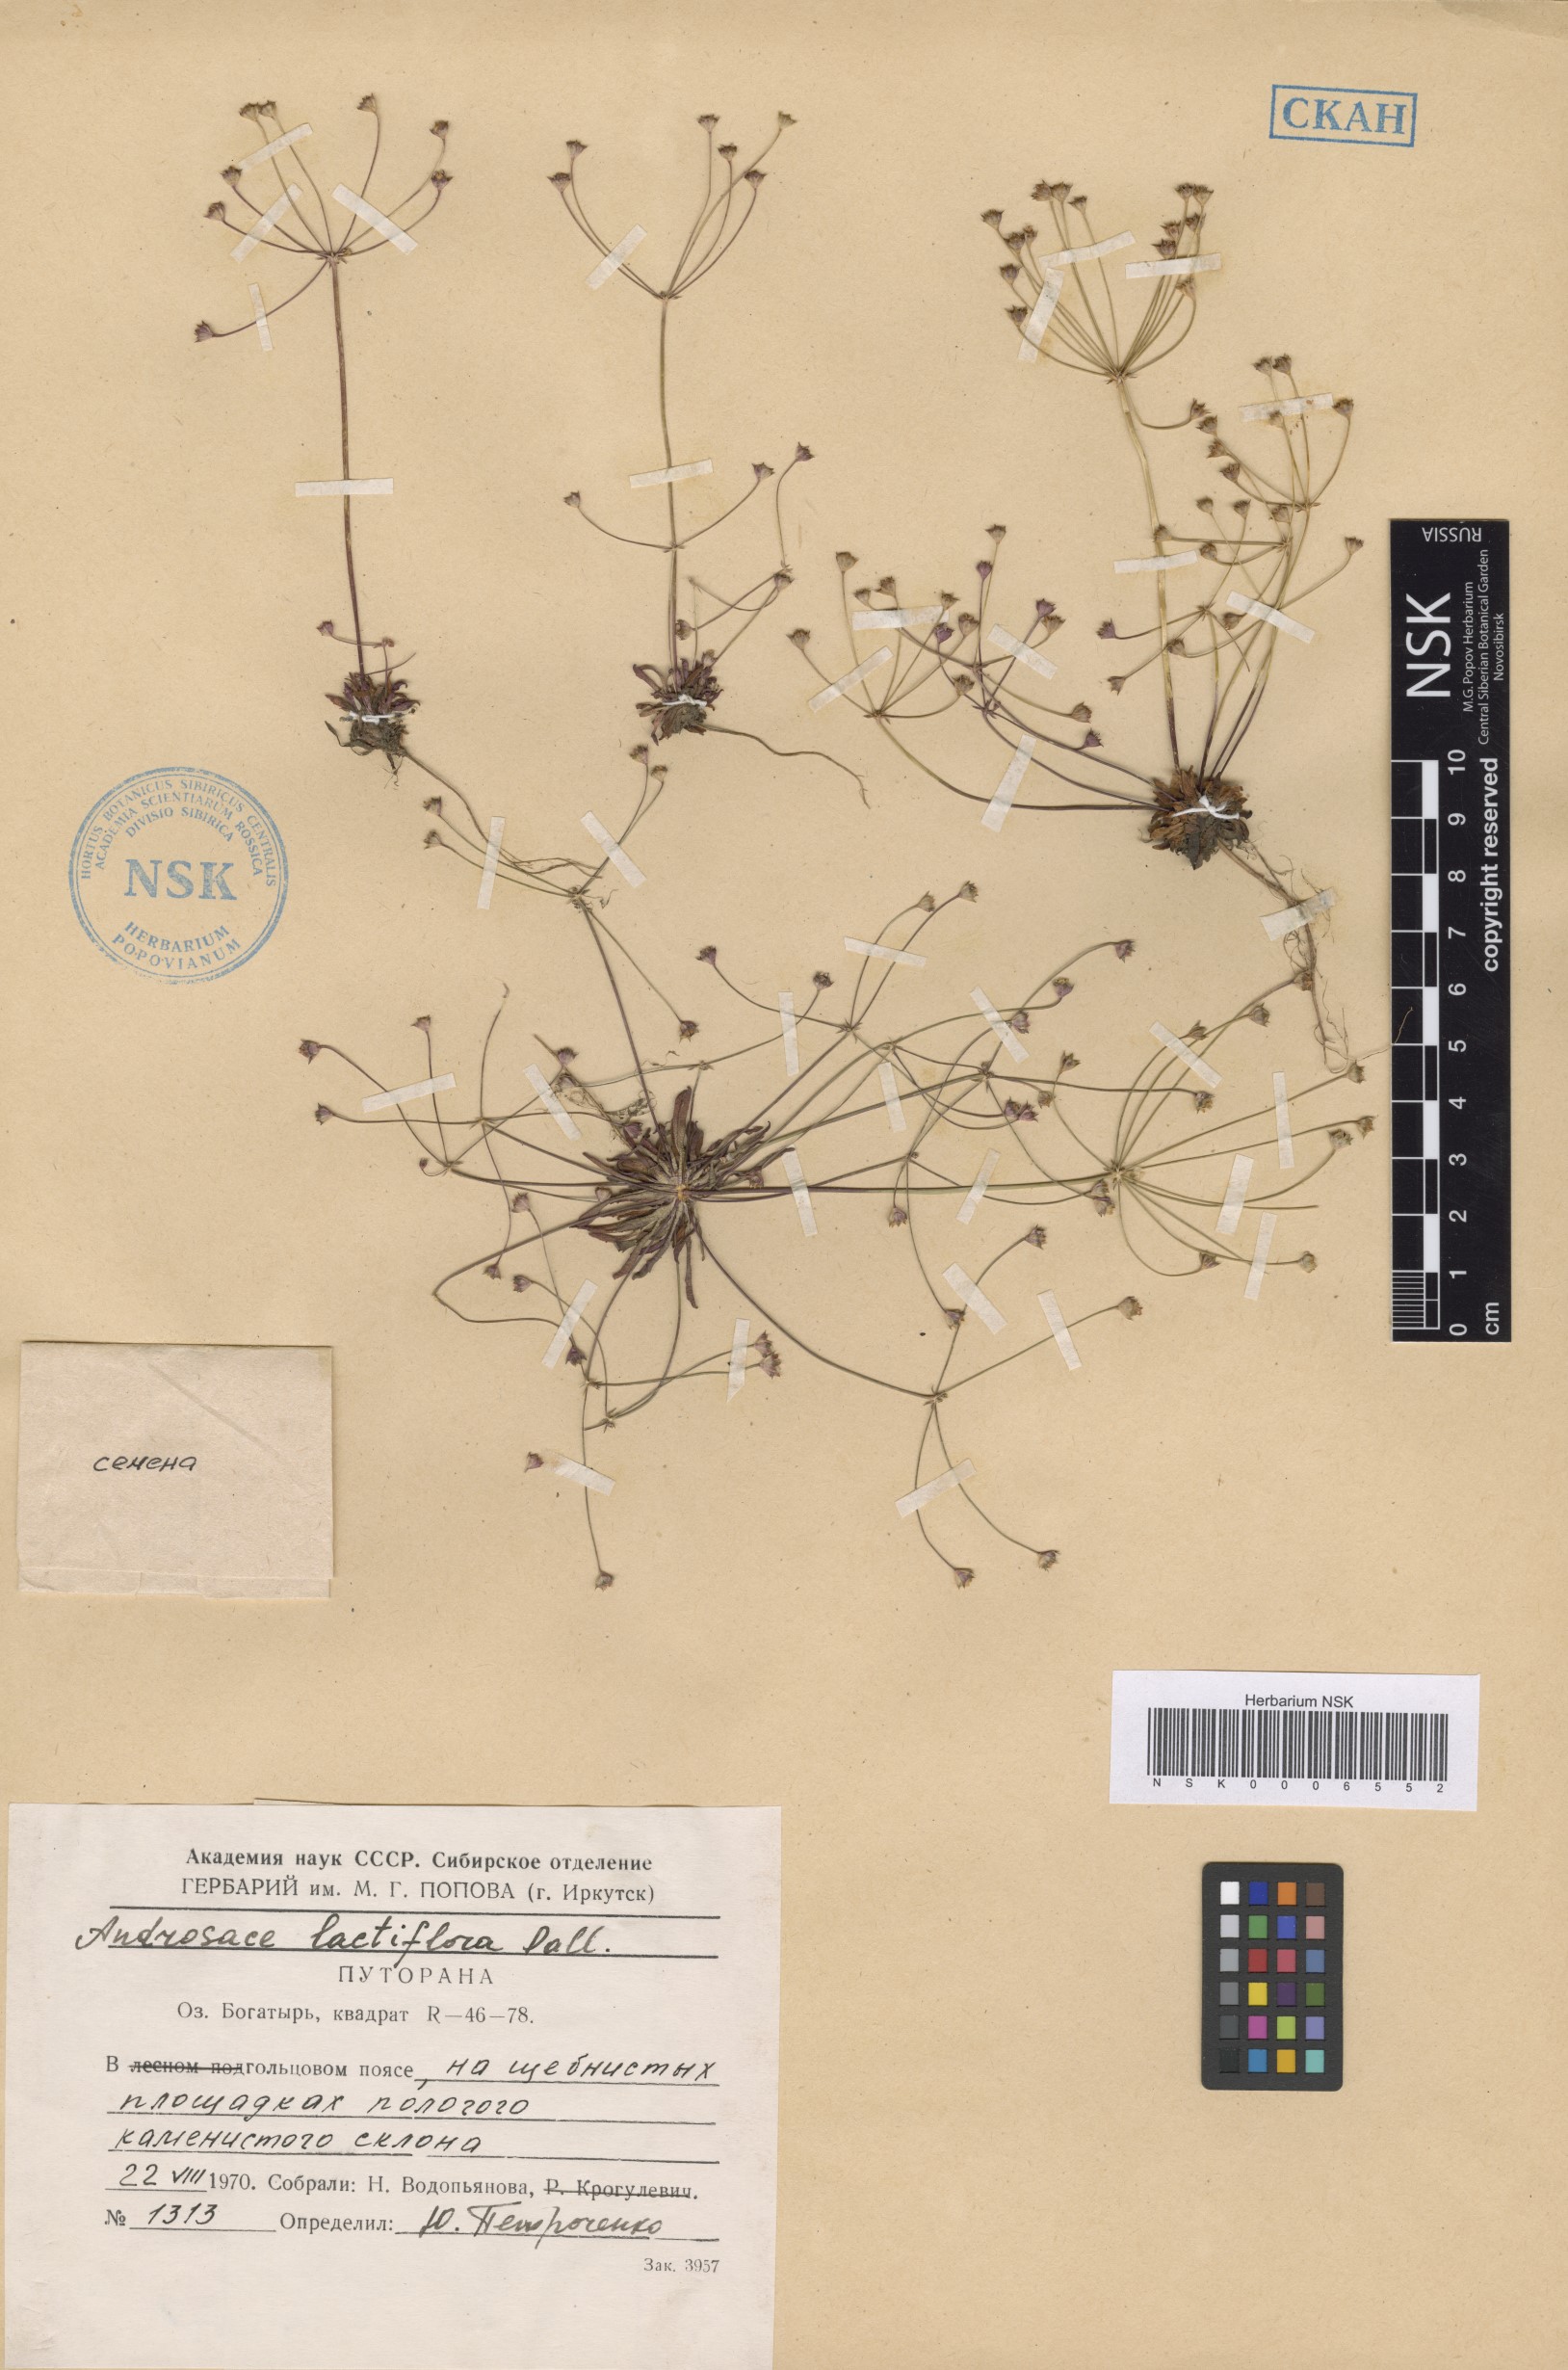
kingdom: Plantae
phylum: Tracheophyta
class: Magnoliopsida
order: Ericales
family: Primulaceae
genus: Androsace
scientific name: Androsace lactiflora
